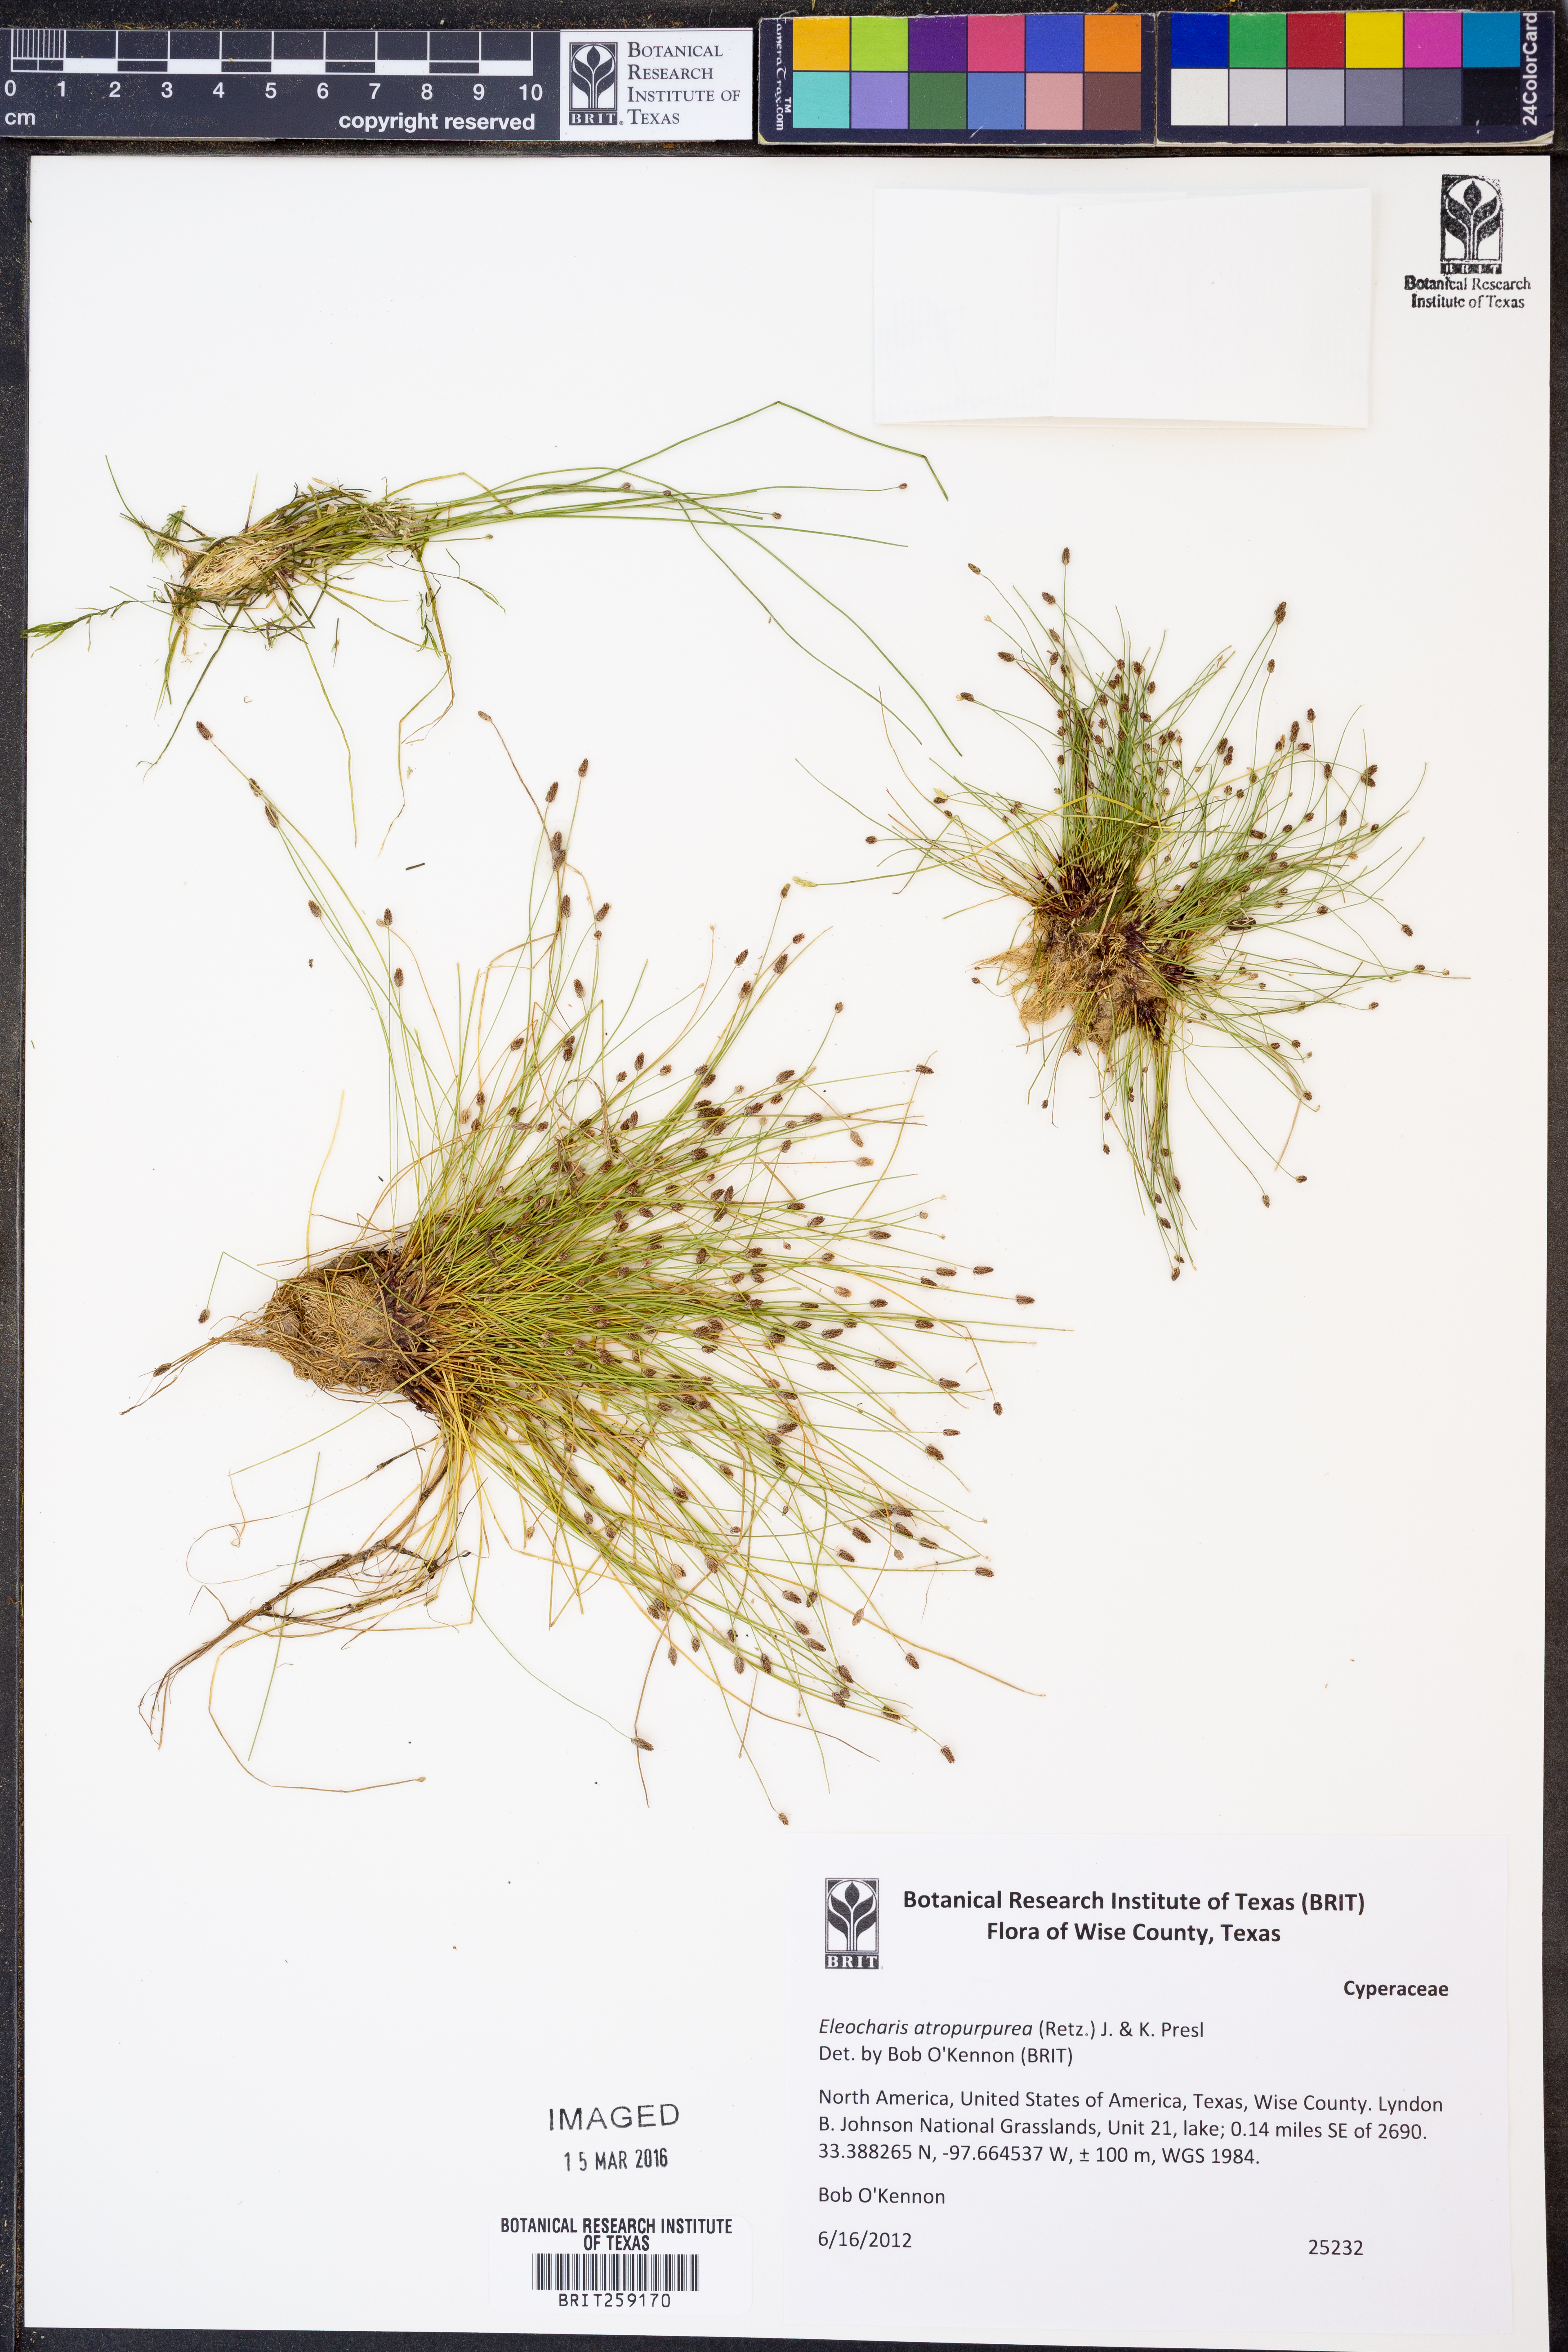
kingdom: Plantae
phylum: Tracheophyta
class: Liliopsida
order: Poales
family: Cyperaceae
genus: Eleocharis
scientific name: Eleocharis atropurpurea
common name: Purple spikerush
